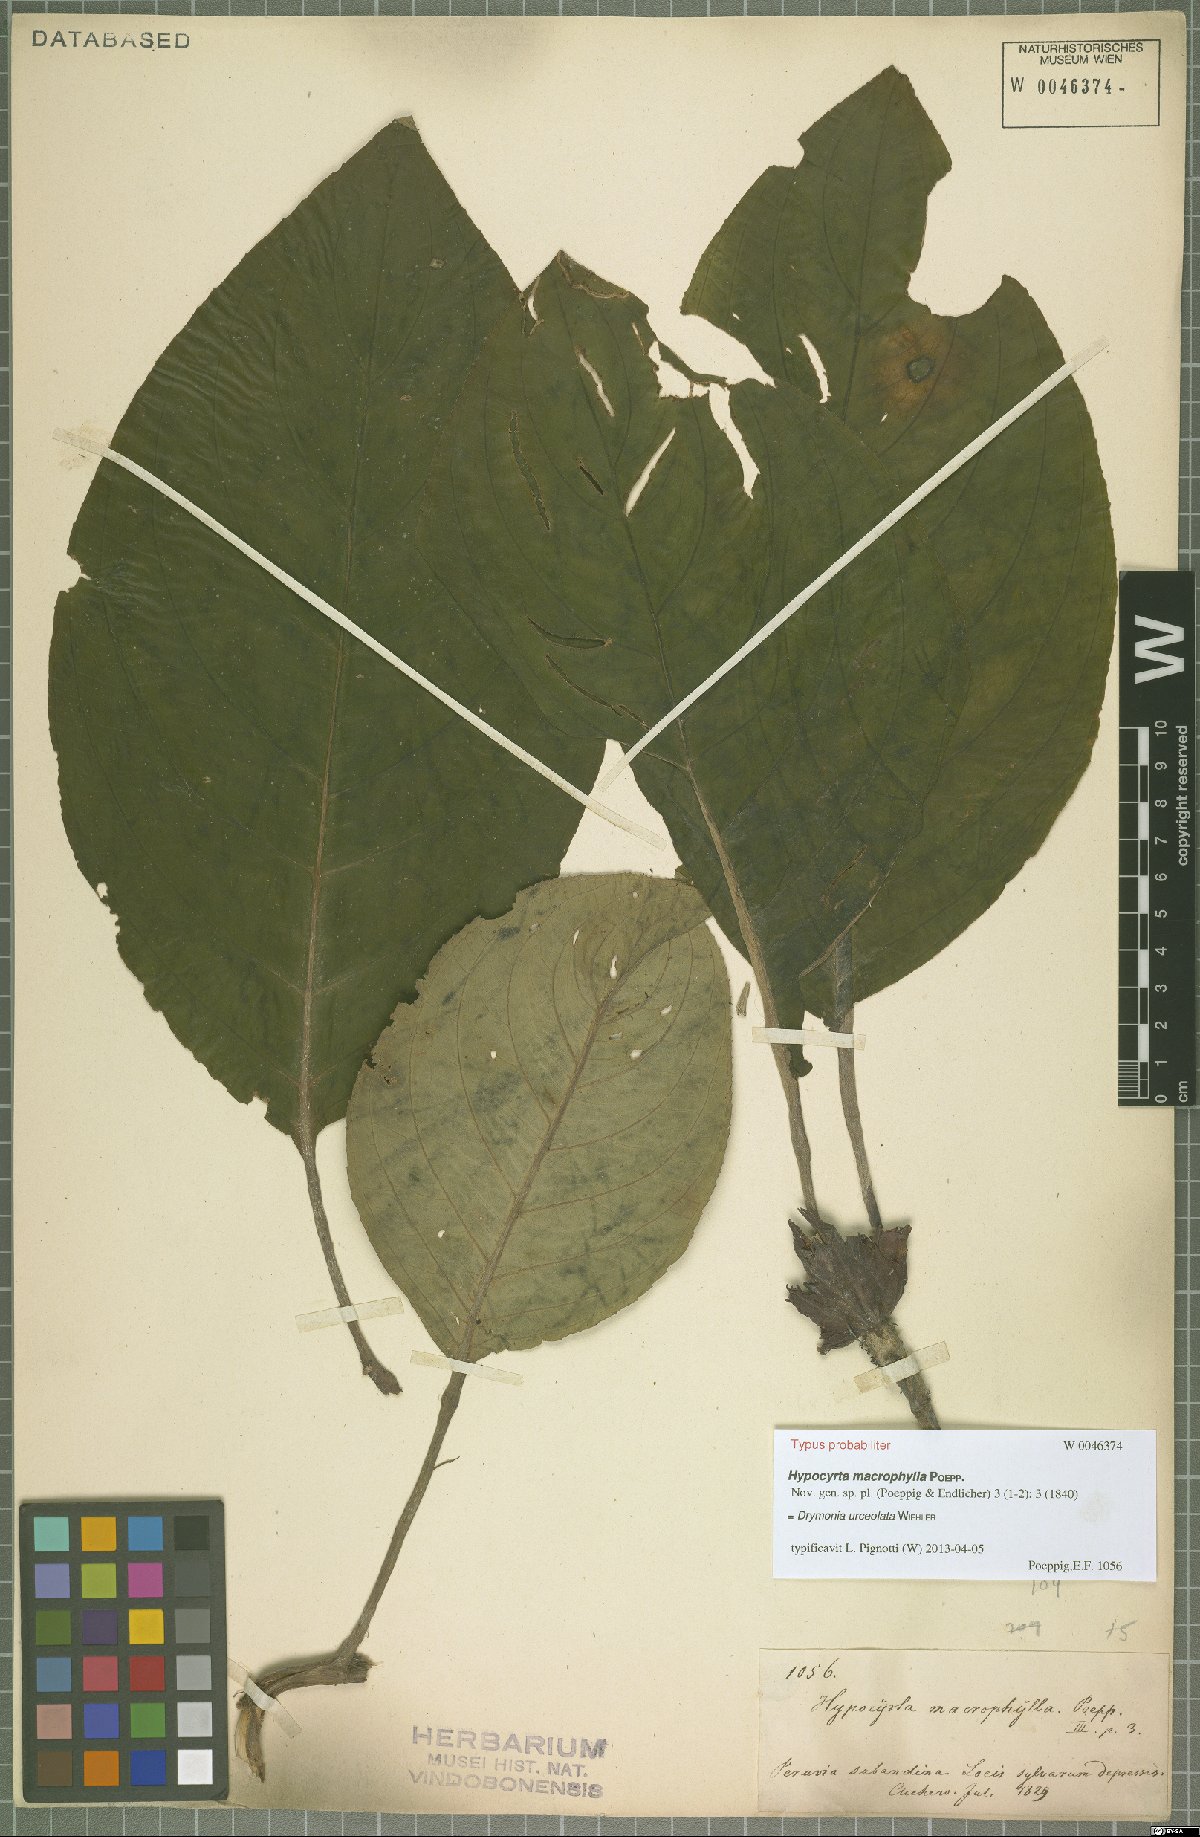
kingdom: Plantae
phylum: Tracheophyta
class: Magnoliopsida
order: Lamiales
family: Gesneriaceae
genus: Drymonia
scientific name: Drymonia urceolata
